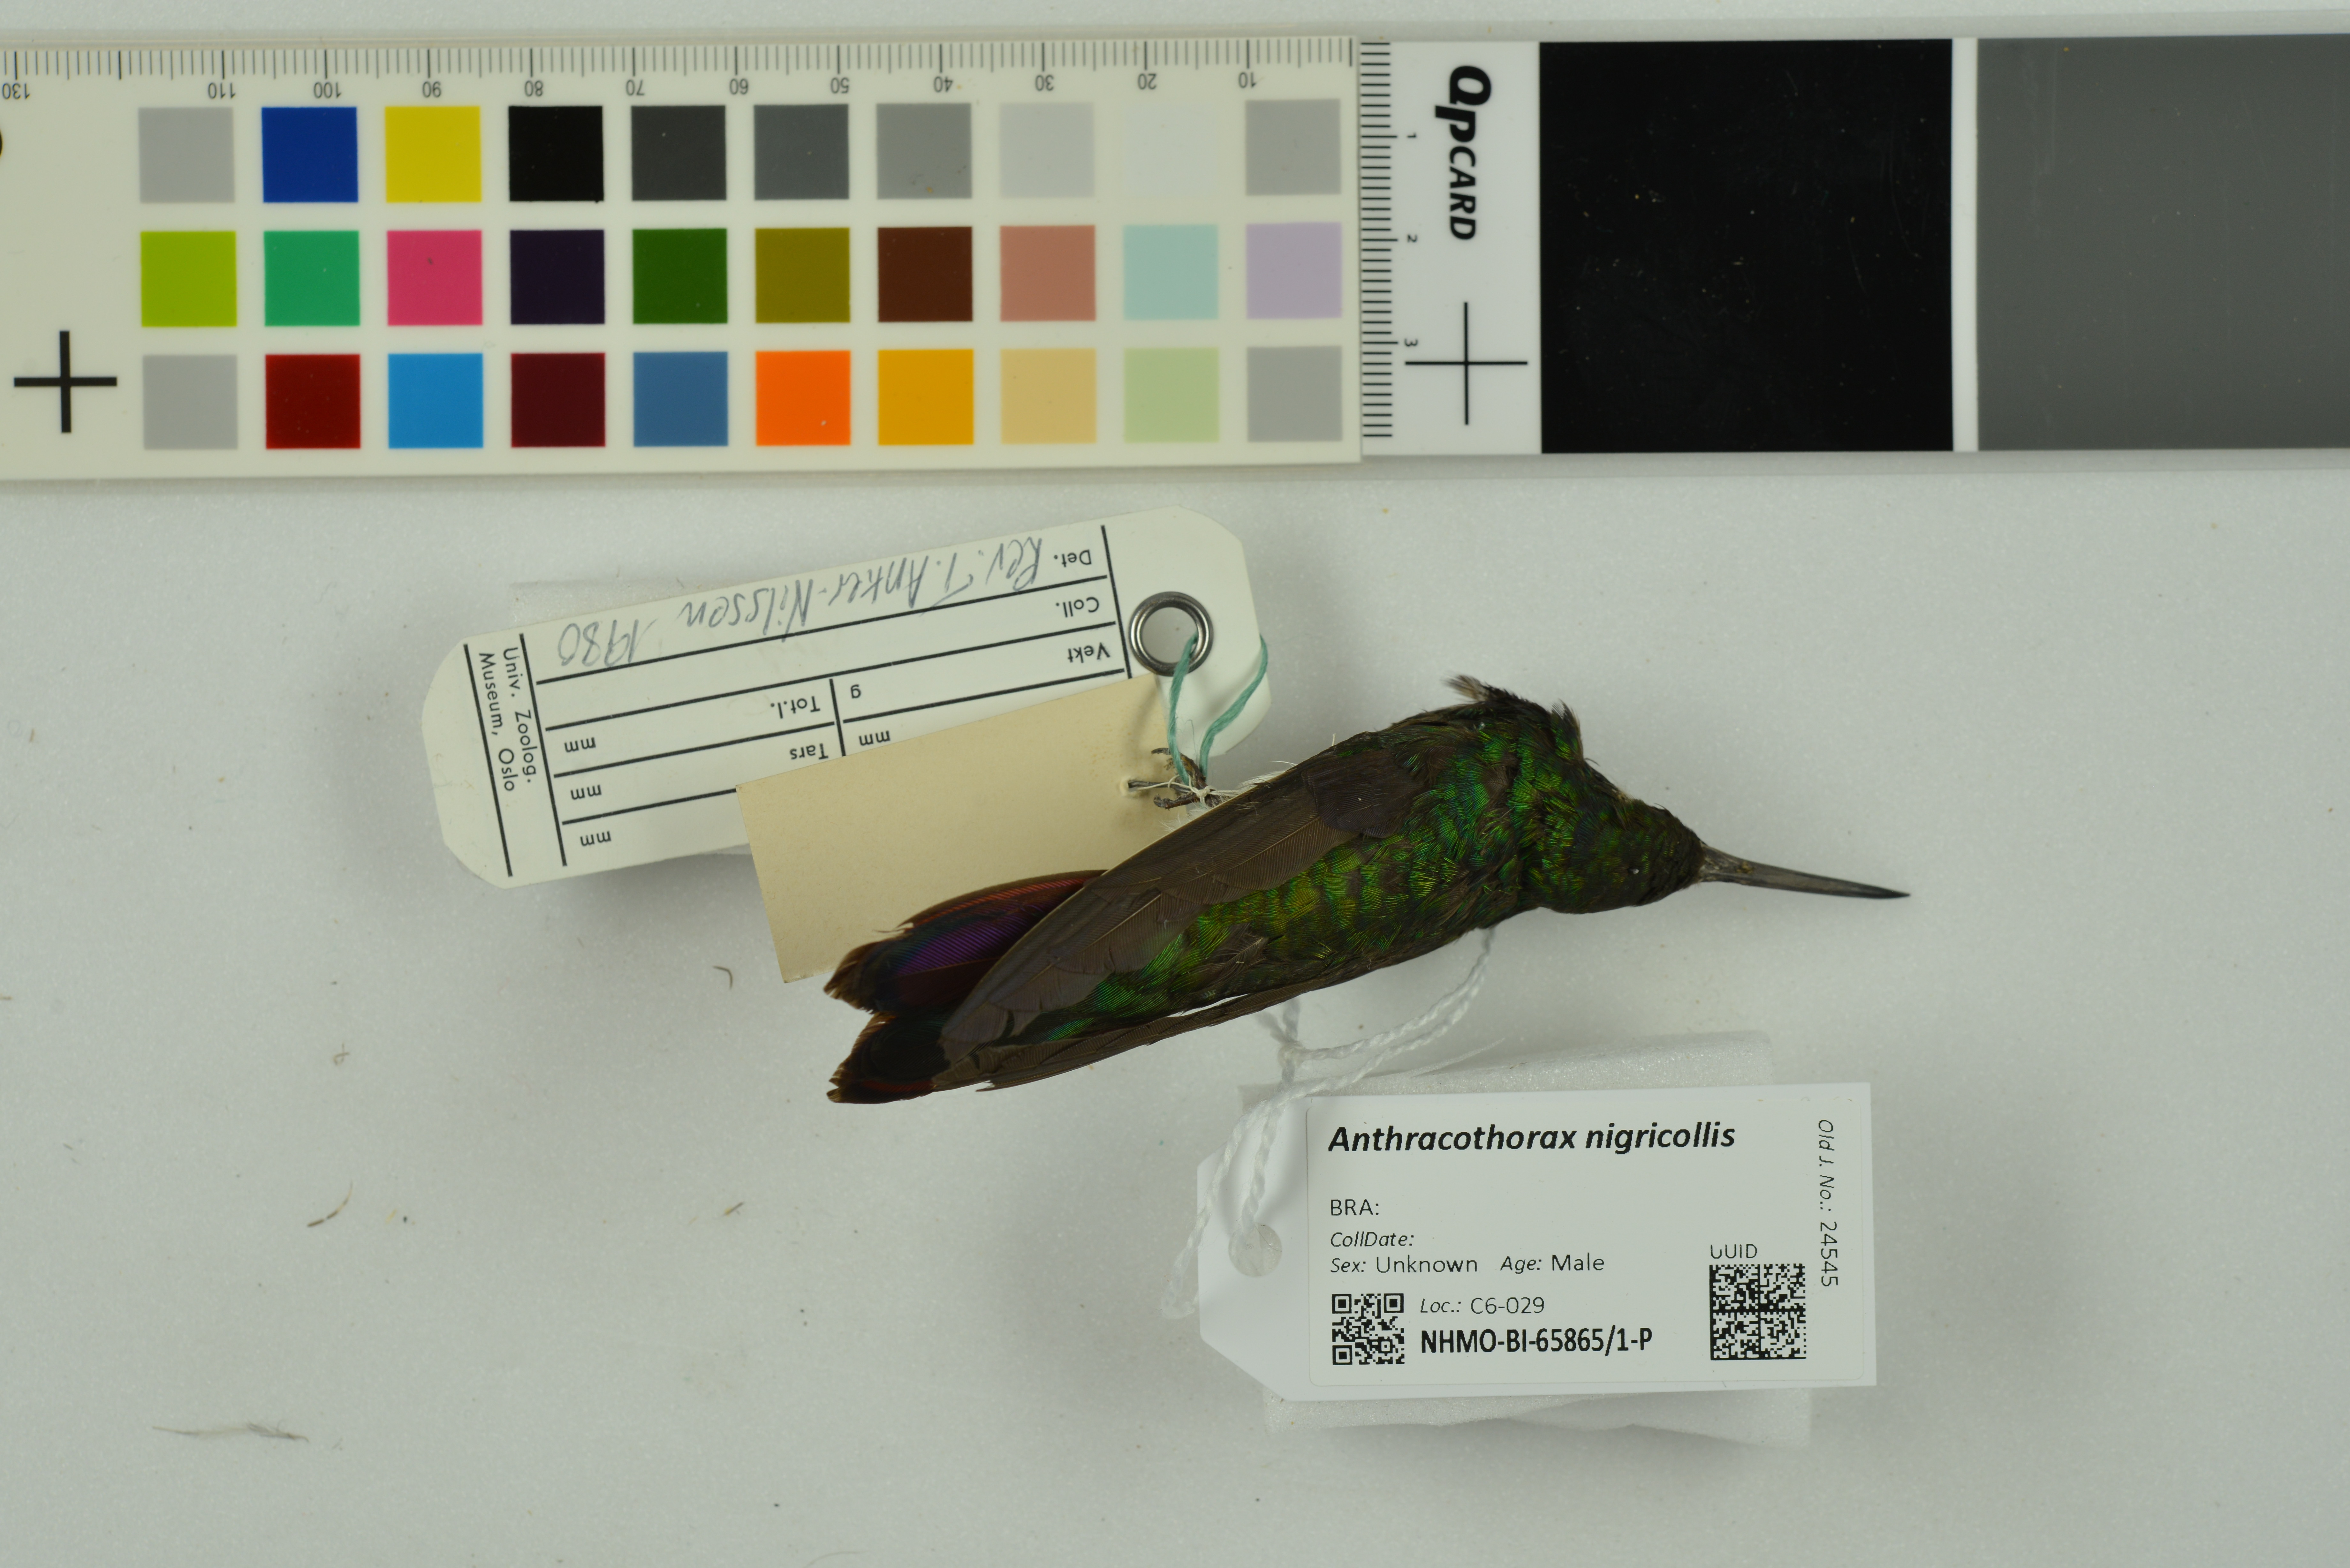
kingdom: Animalia
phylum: Chordata
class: Aves
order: Apodiformes
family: Trochilidae
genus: Anthracothorax
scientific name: Anthracothorax nigricollis
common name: Black-throated mango
